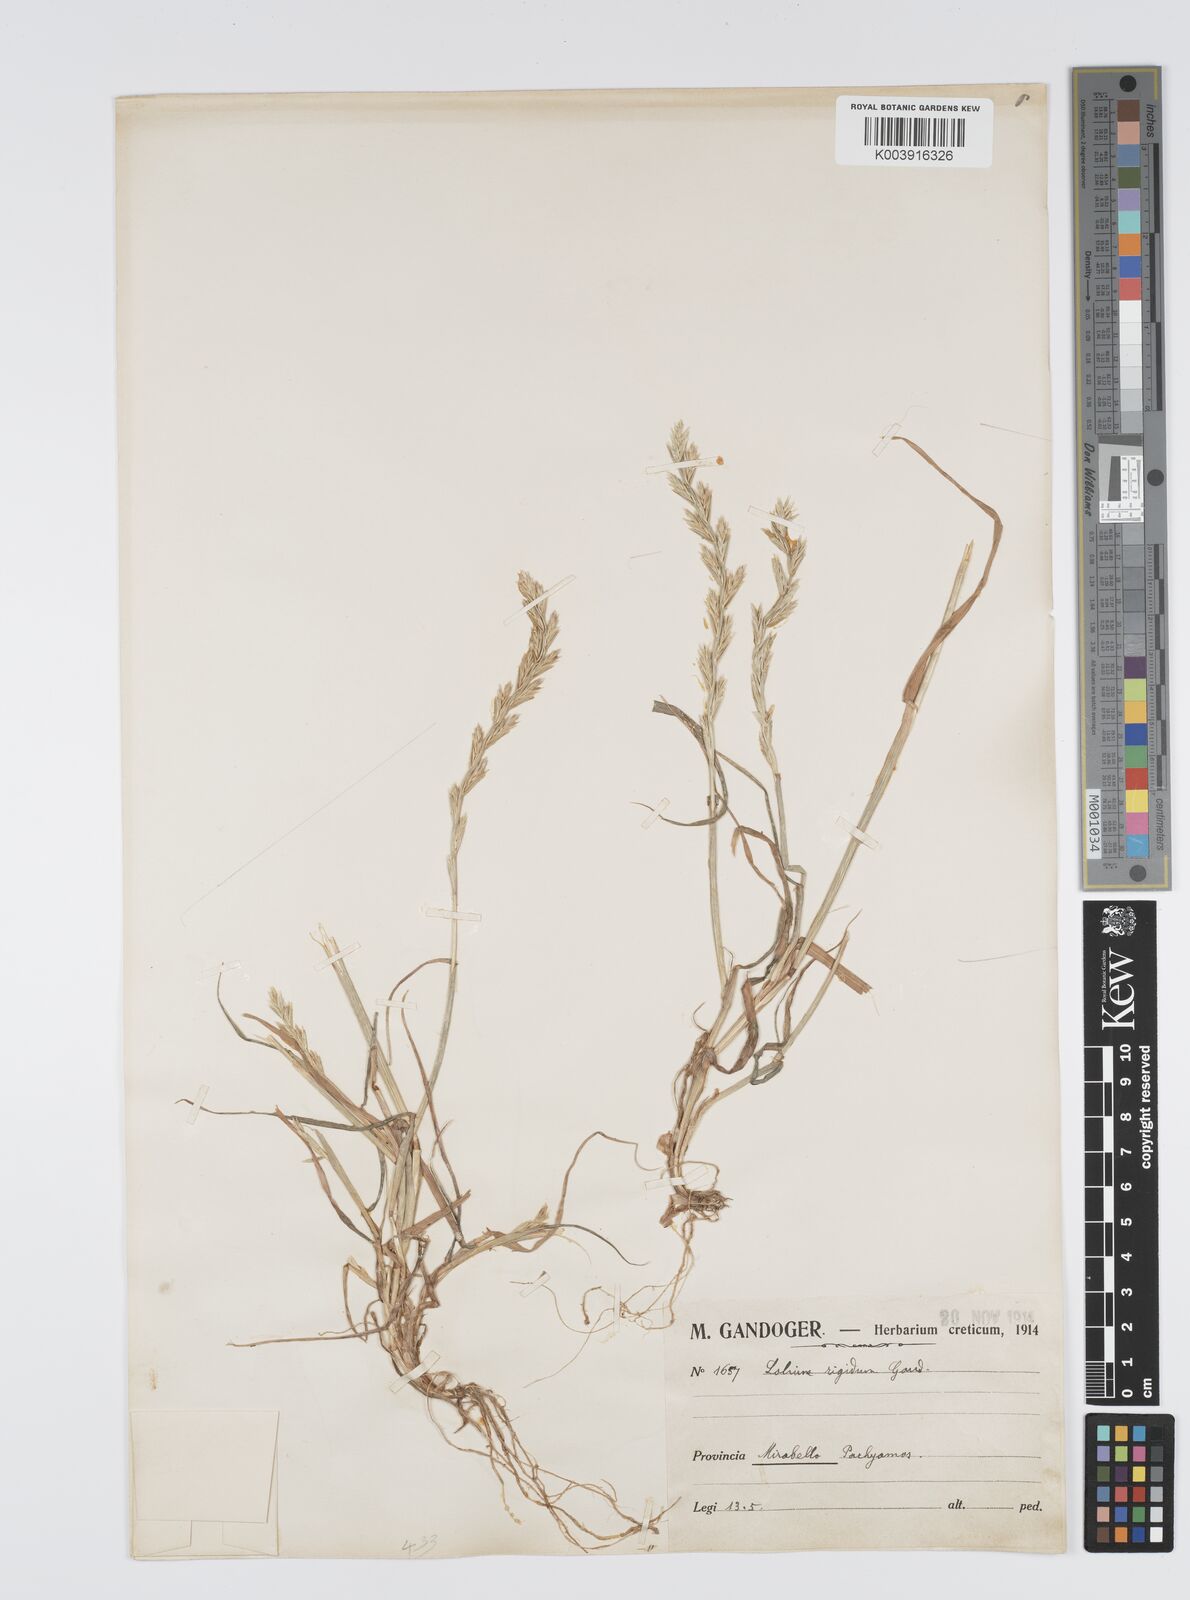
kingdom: Plantae
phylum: Tracheophyta
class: Liliopsida
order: Poales
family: Poaceae
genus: Lolium
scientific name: Lolium rigidum
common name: Wimmera ryegrass
